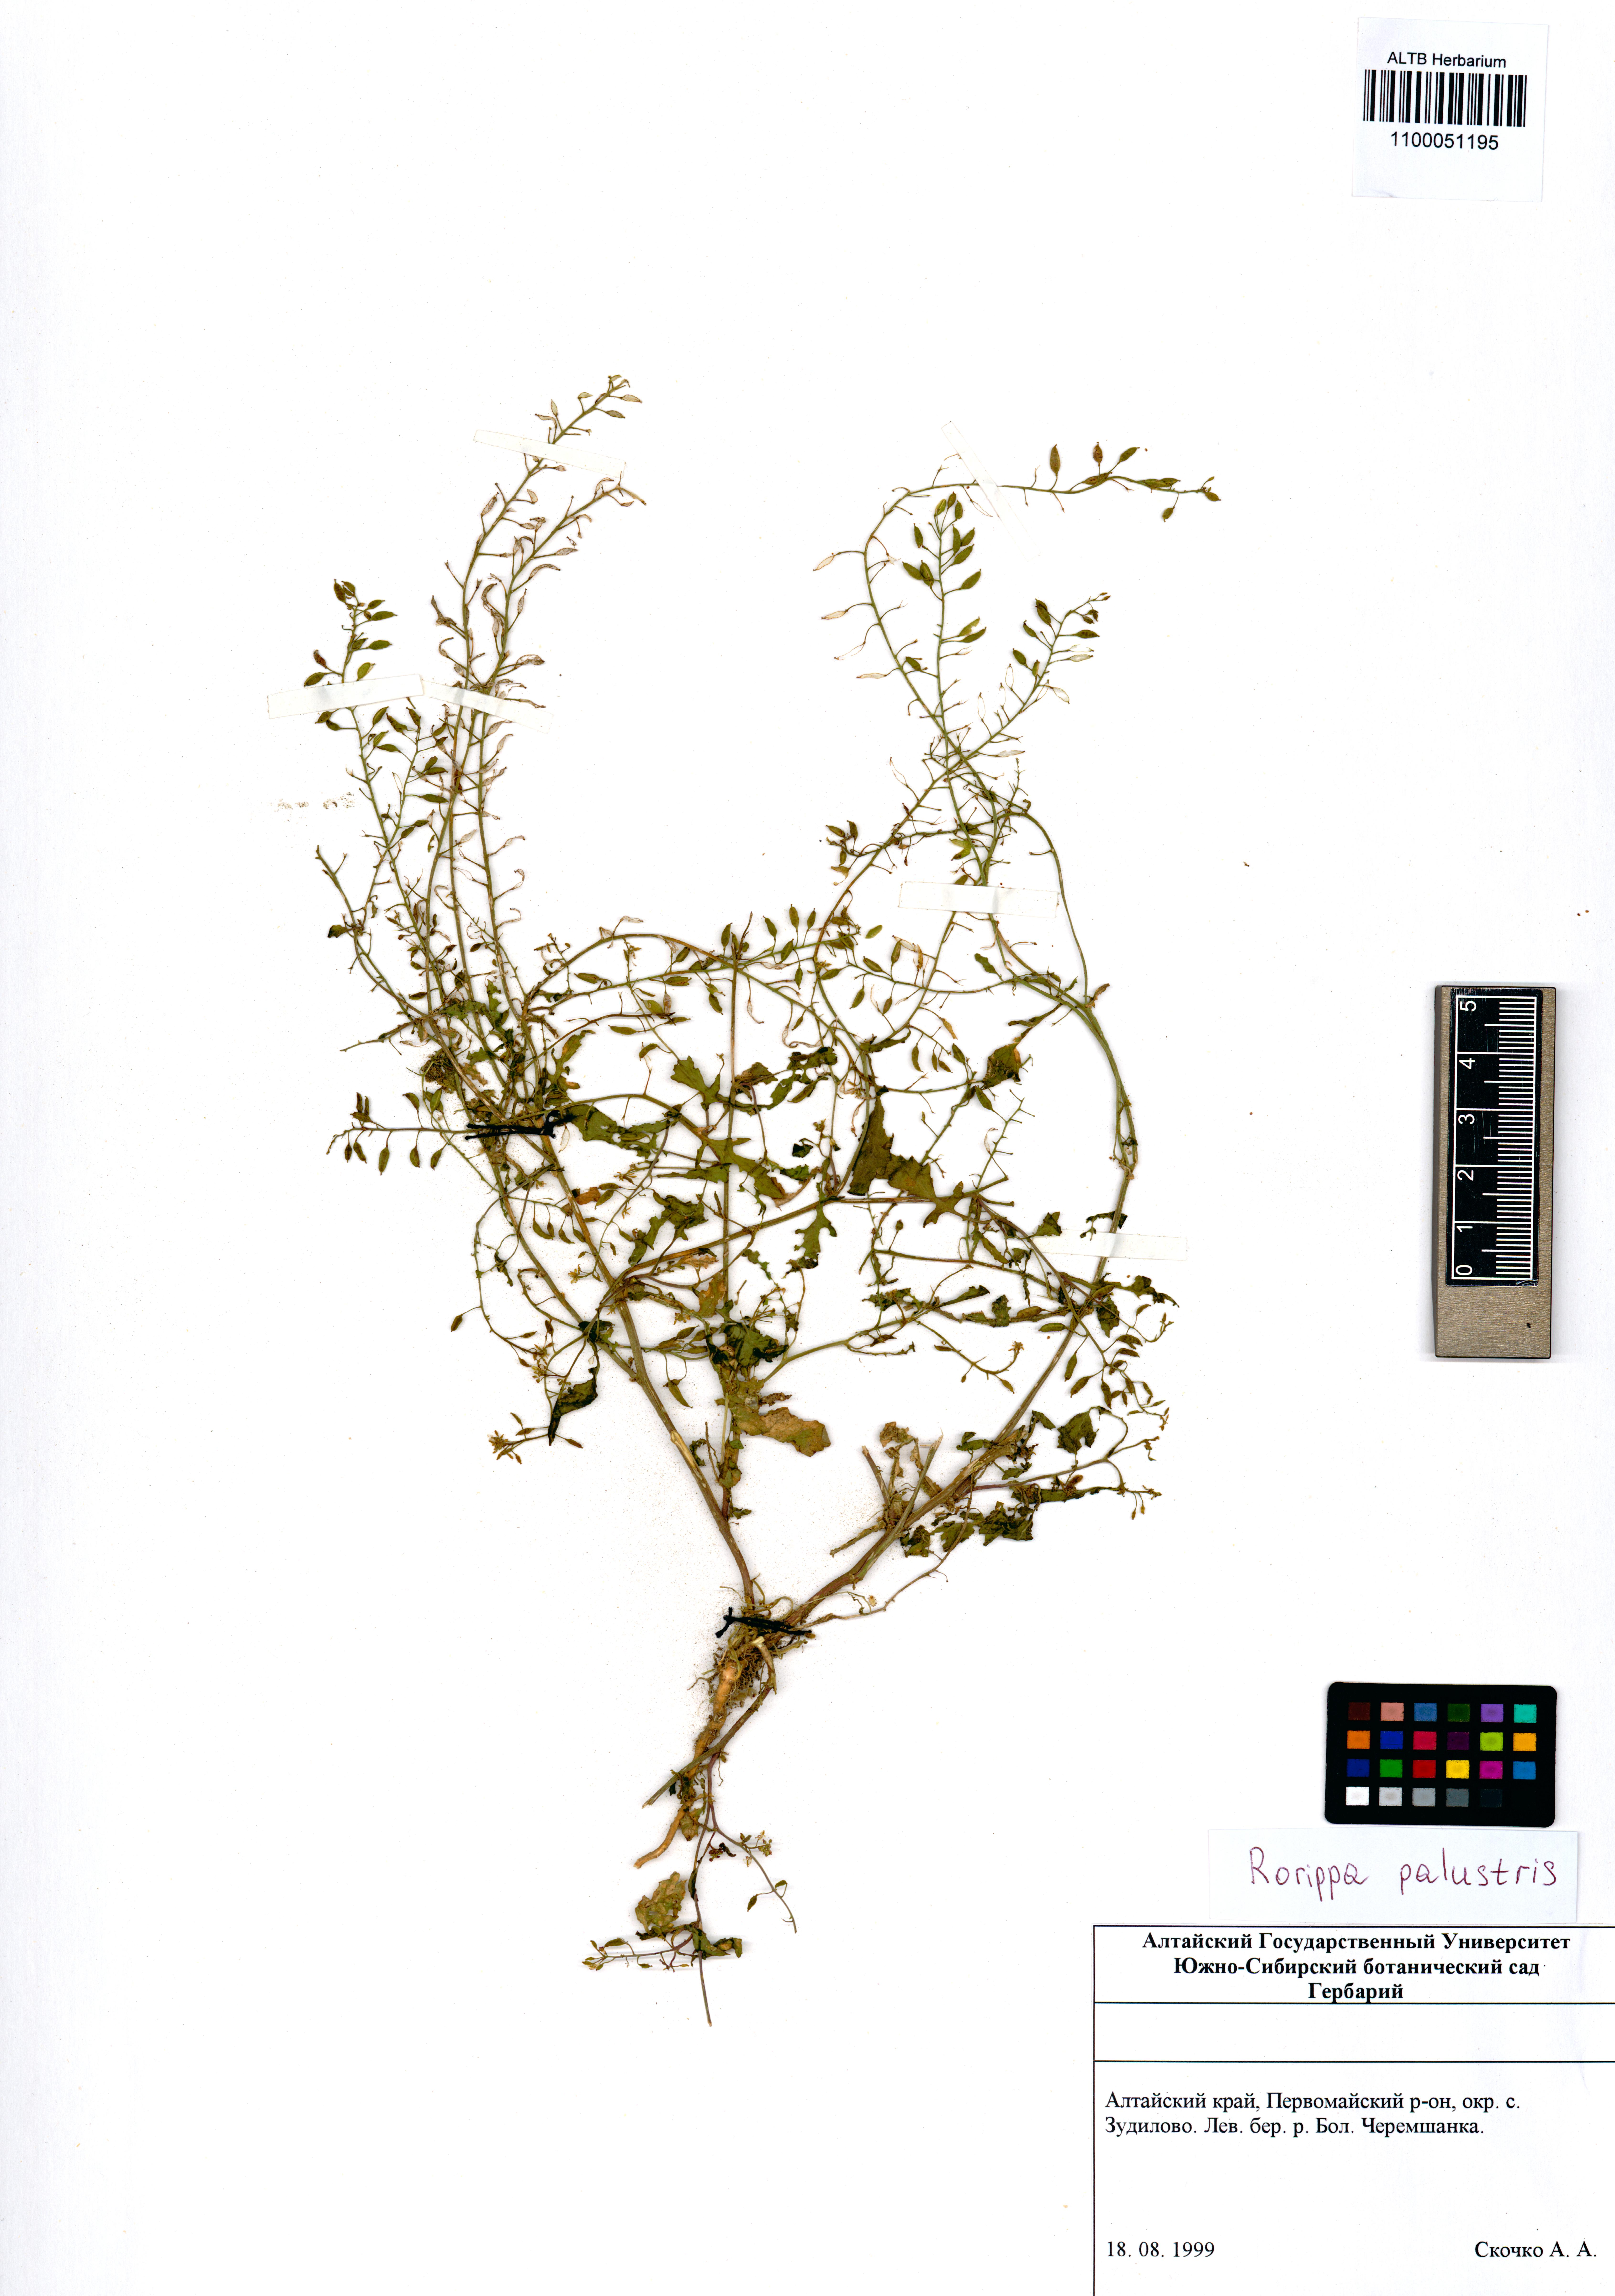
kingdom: Plantae
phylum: Tracheophyta
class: Magnoliopsida
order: Brassicales
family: Brassicaceae
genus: Rorippa
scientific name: Rorippa palustris
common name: Marsh yellow-cress
